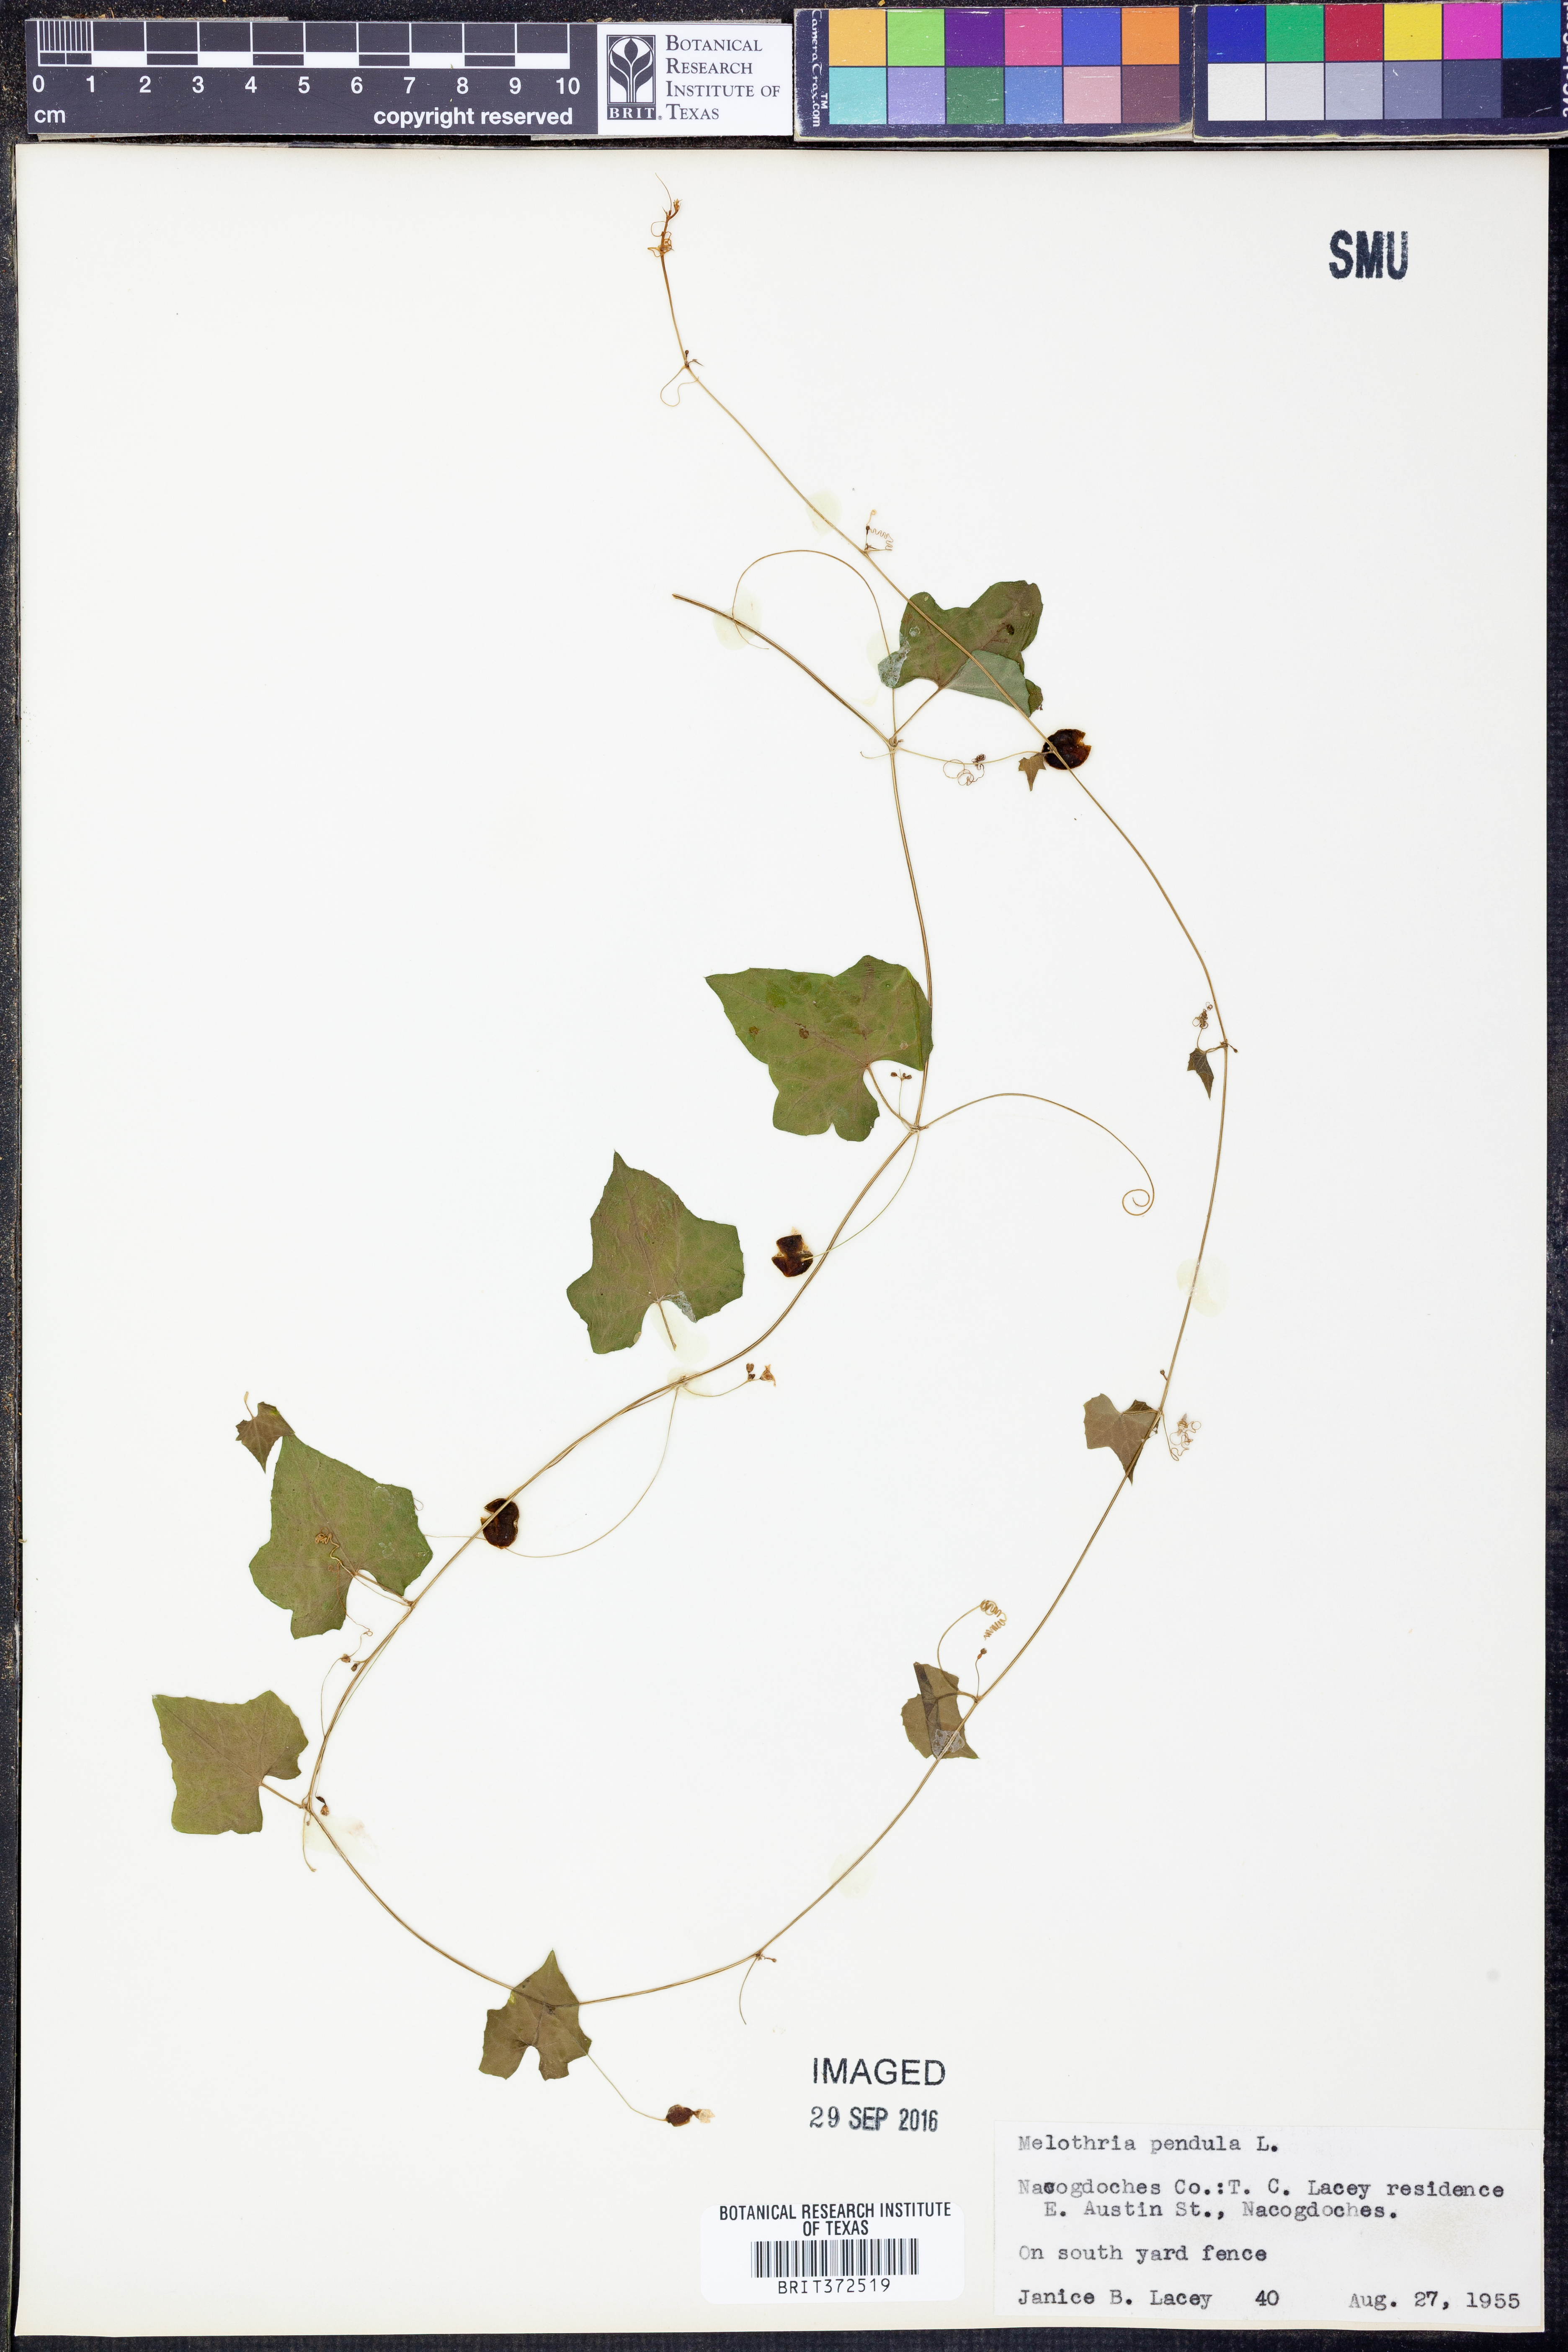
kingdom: Plantae
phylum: Tracheophyta
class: Magnoliopsida
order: Cucurbitales
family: Cucurbitaceae
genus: Melothria
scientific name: Melothria pendula
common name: Creeping-cucumber
